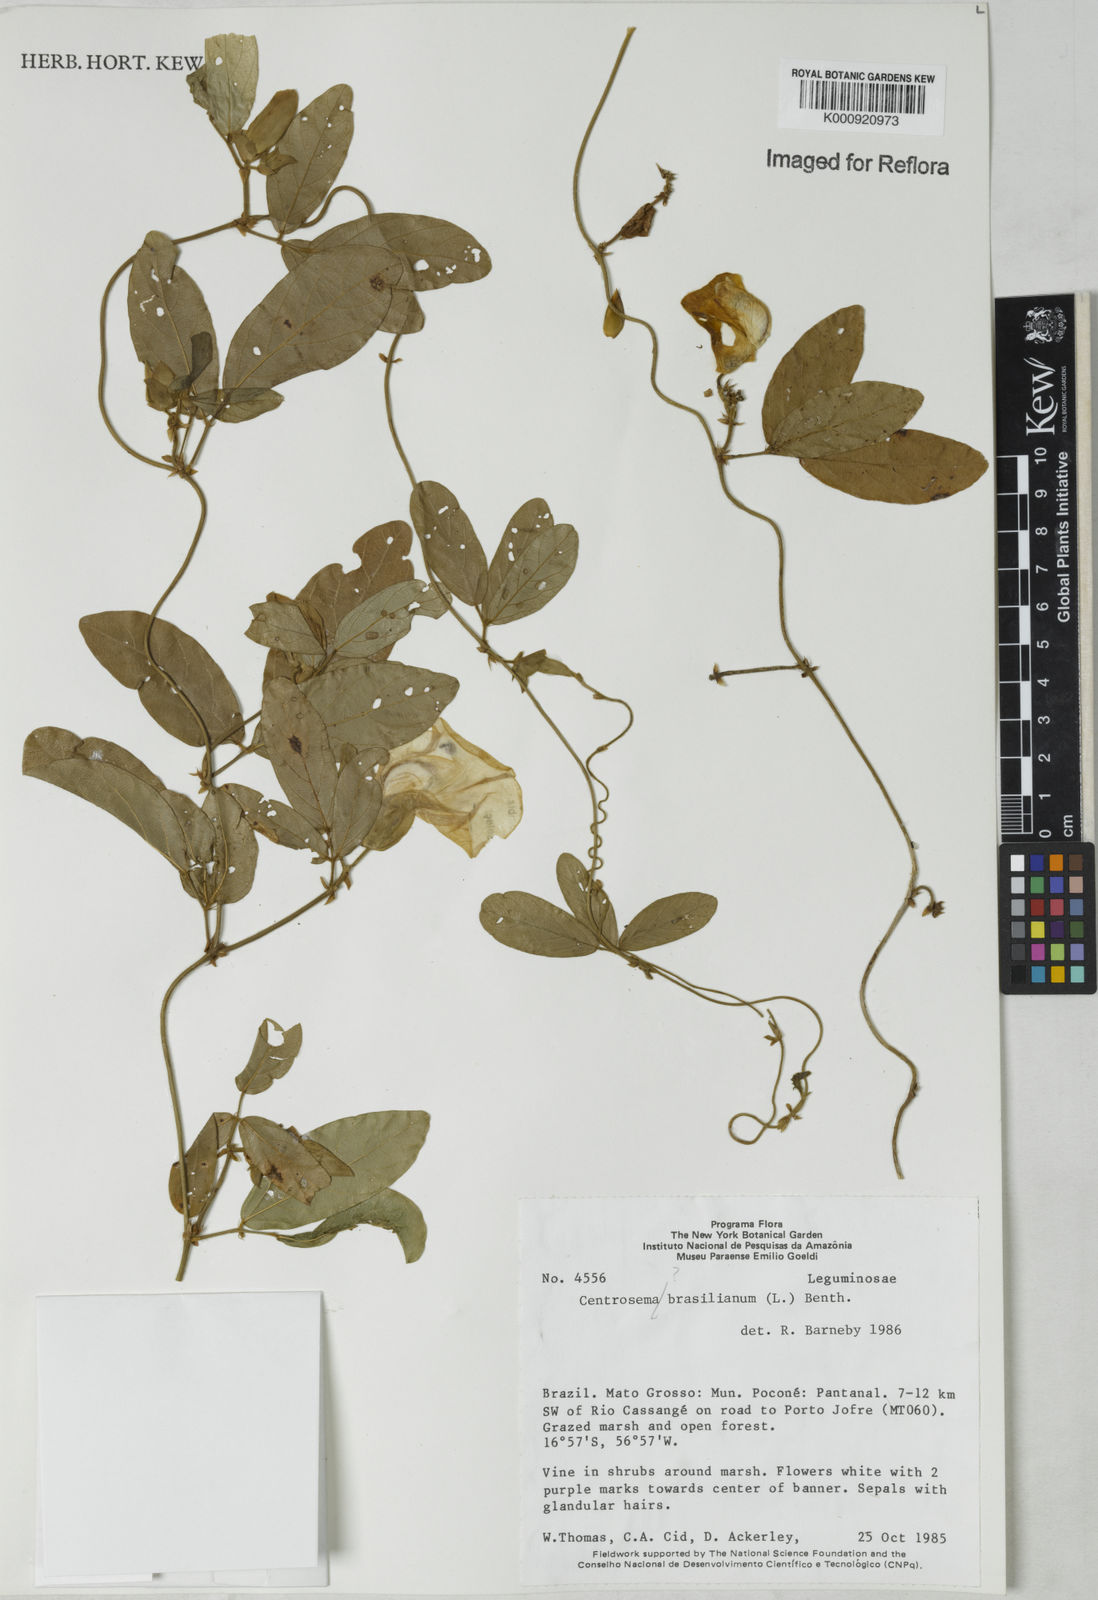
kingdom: Plantae
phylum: Tracheophyta
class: Magnoliopsida
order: Fabales
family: Fabaceae
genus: Centrosema
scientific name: Centrosema
